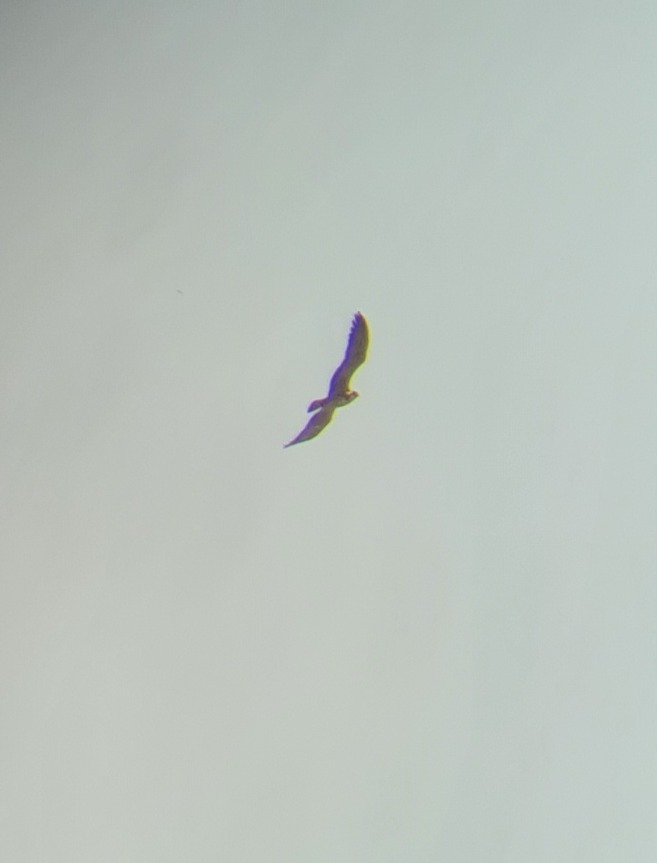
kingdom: Animalia
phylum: Chordata
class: Aves
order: Accipitriformes
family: Pandionidae
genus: Pandion
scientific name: Pandion haliaetus
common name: Fiskeørn
